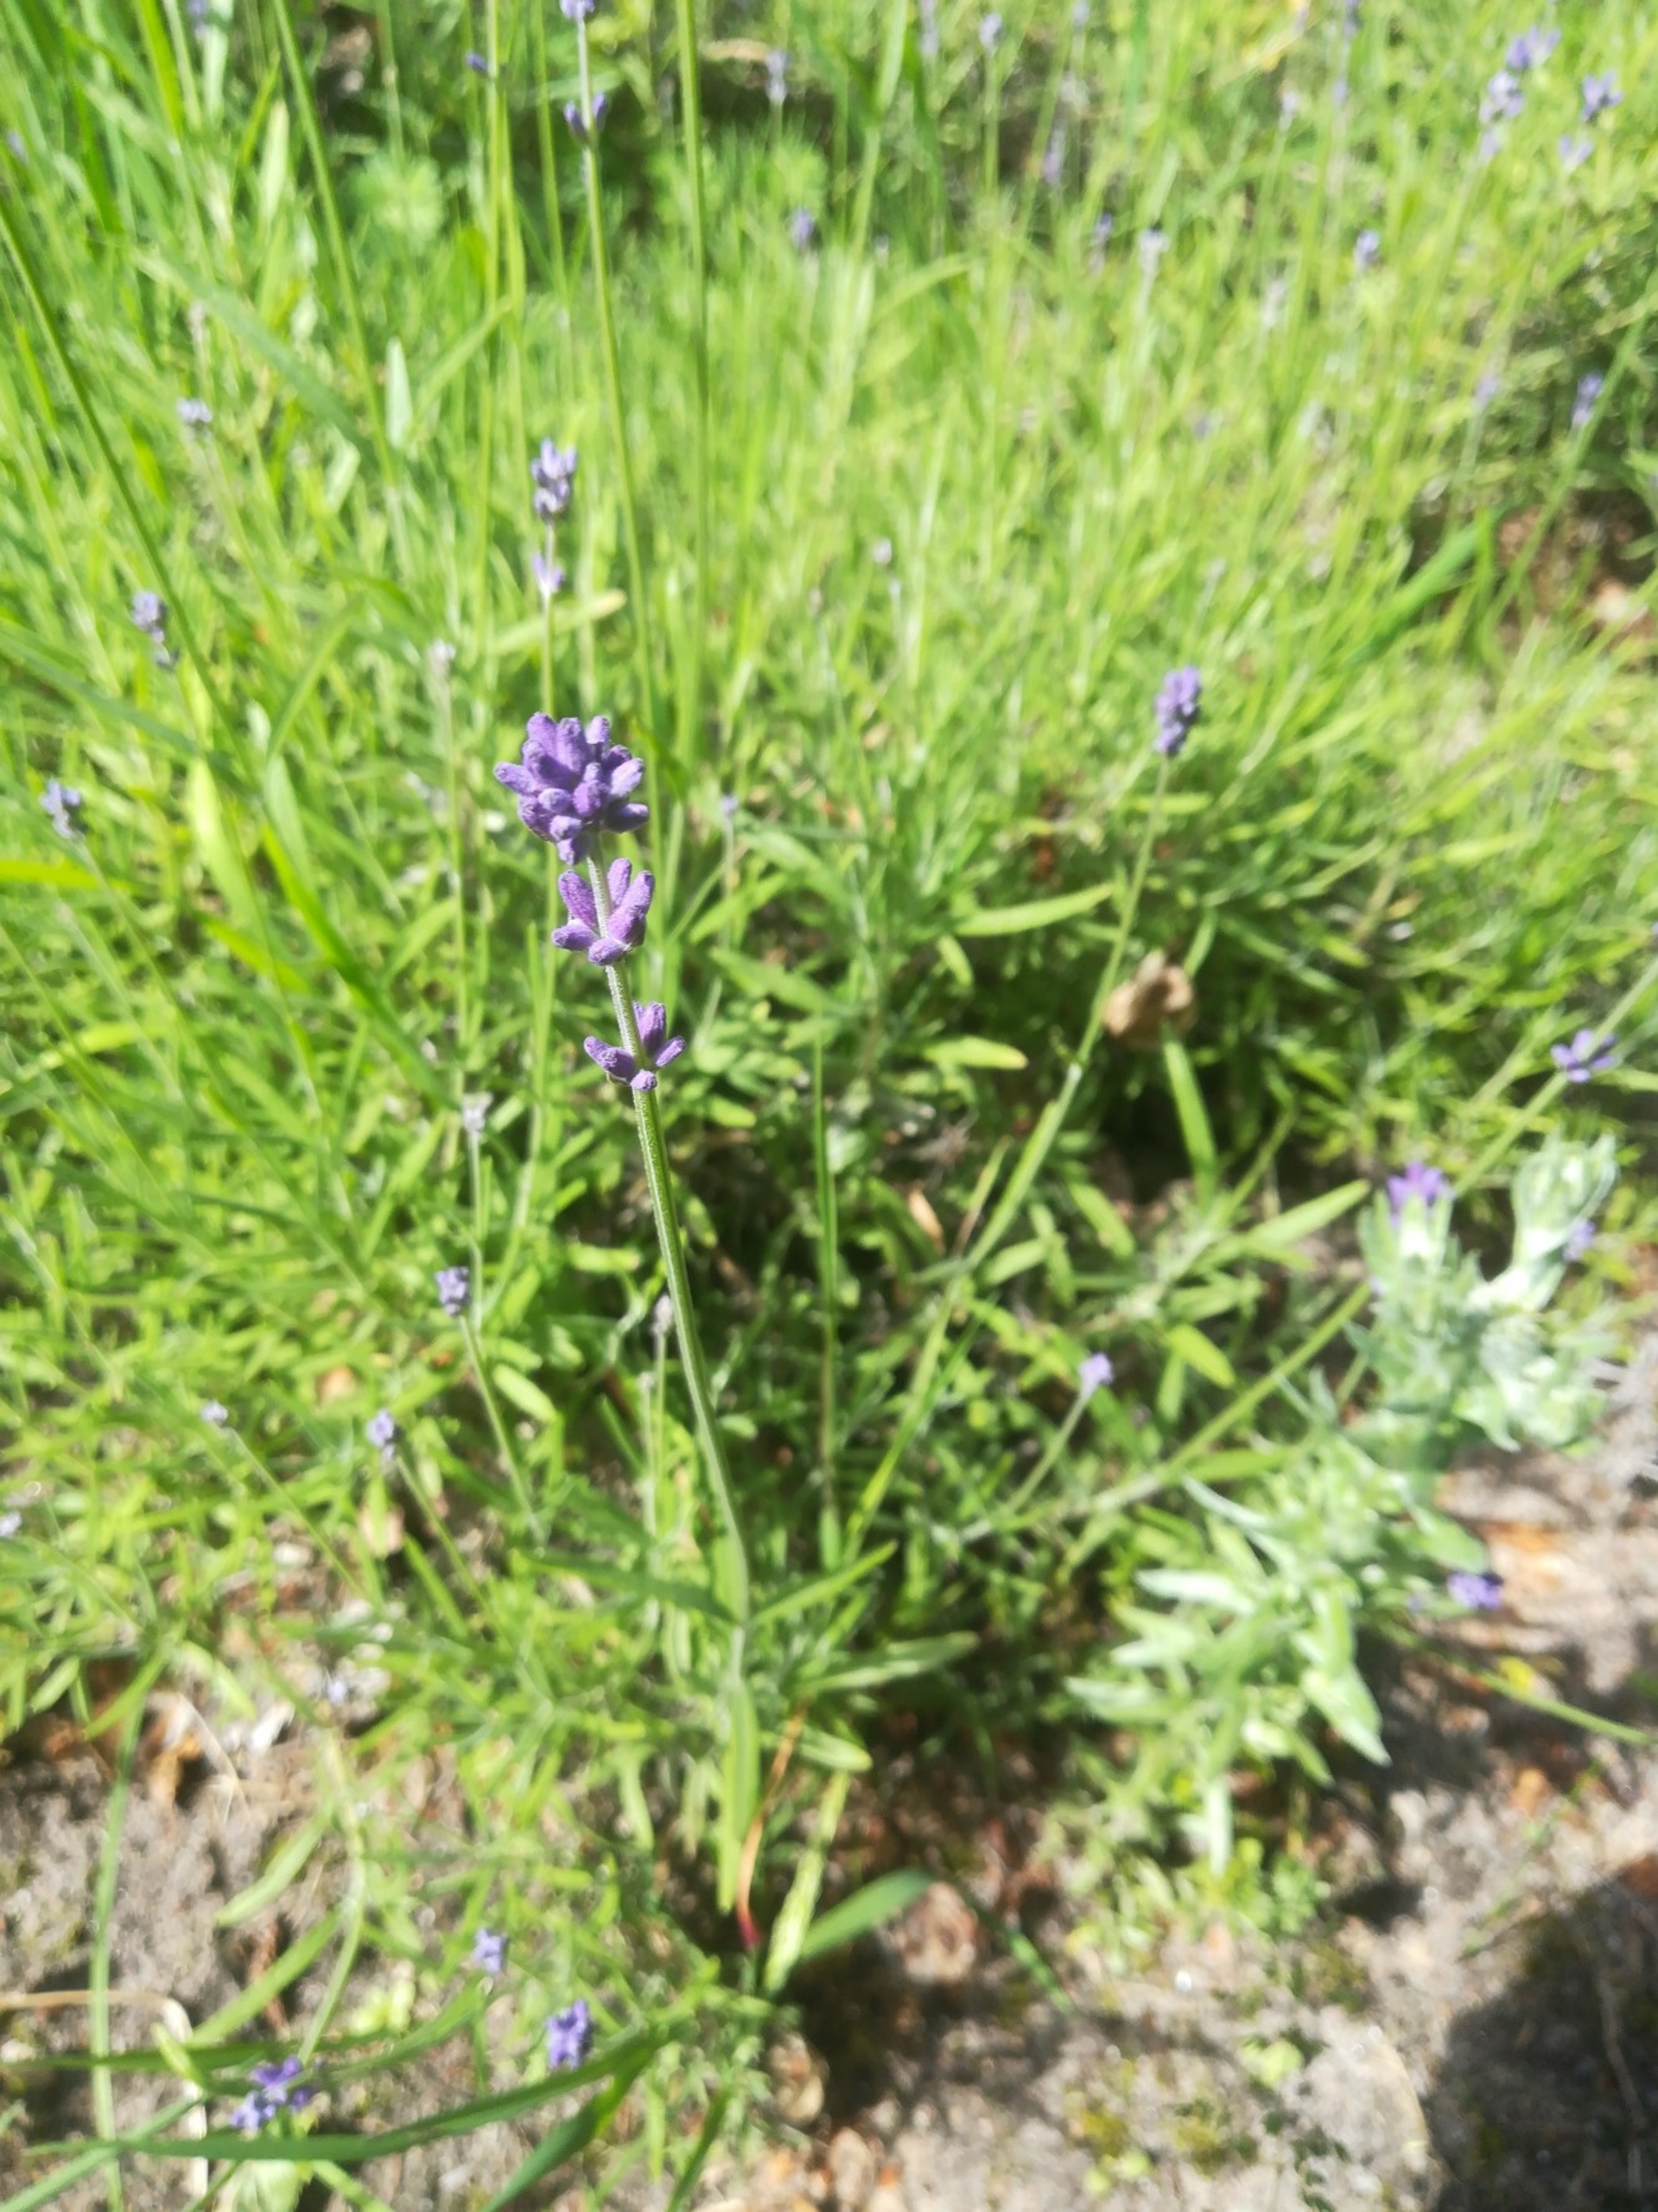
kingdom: Plantae
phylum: Tracheophyta
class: Magnoliopsida
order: Lamiales
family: Lamiaceae
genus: Lavandula
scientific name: Lavandula angustifolia
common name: Ægte lavendel
